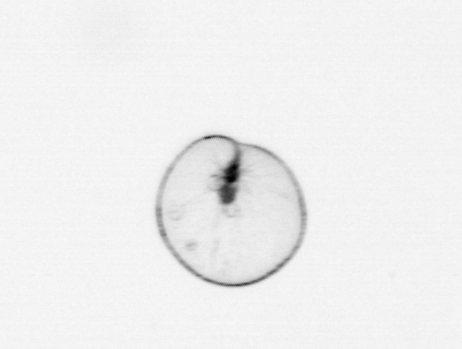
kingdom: Chromista
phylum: Myzozoa
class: Dinophyceae
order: Noctilucales
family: Noctilucaceae
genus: Noctiluca
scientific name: Noctiluca scintillans
